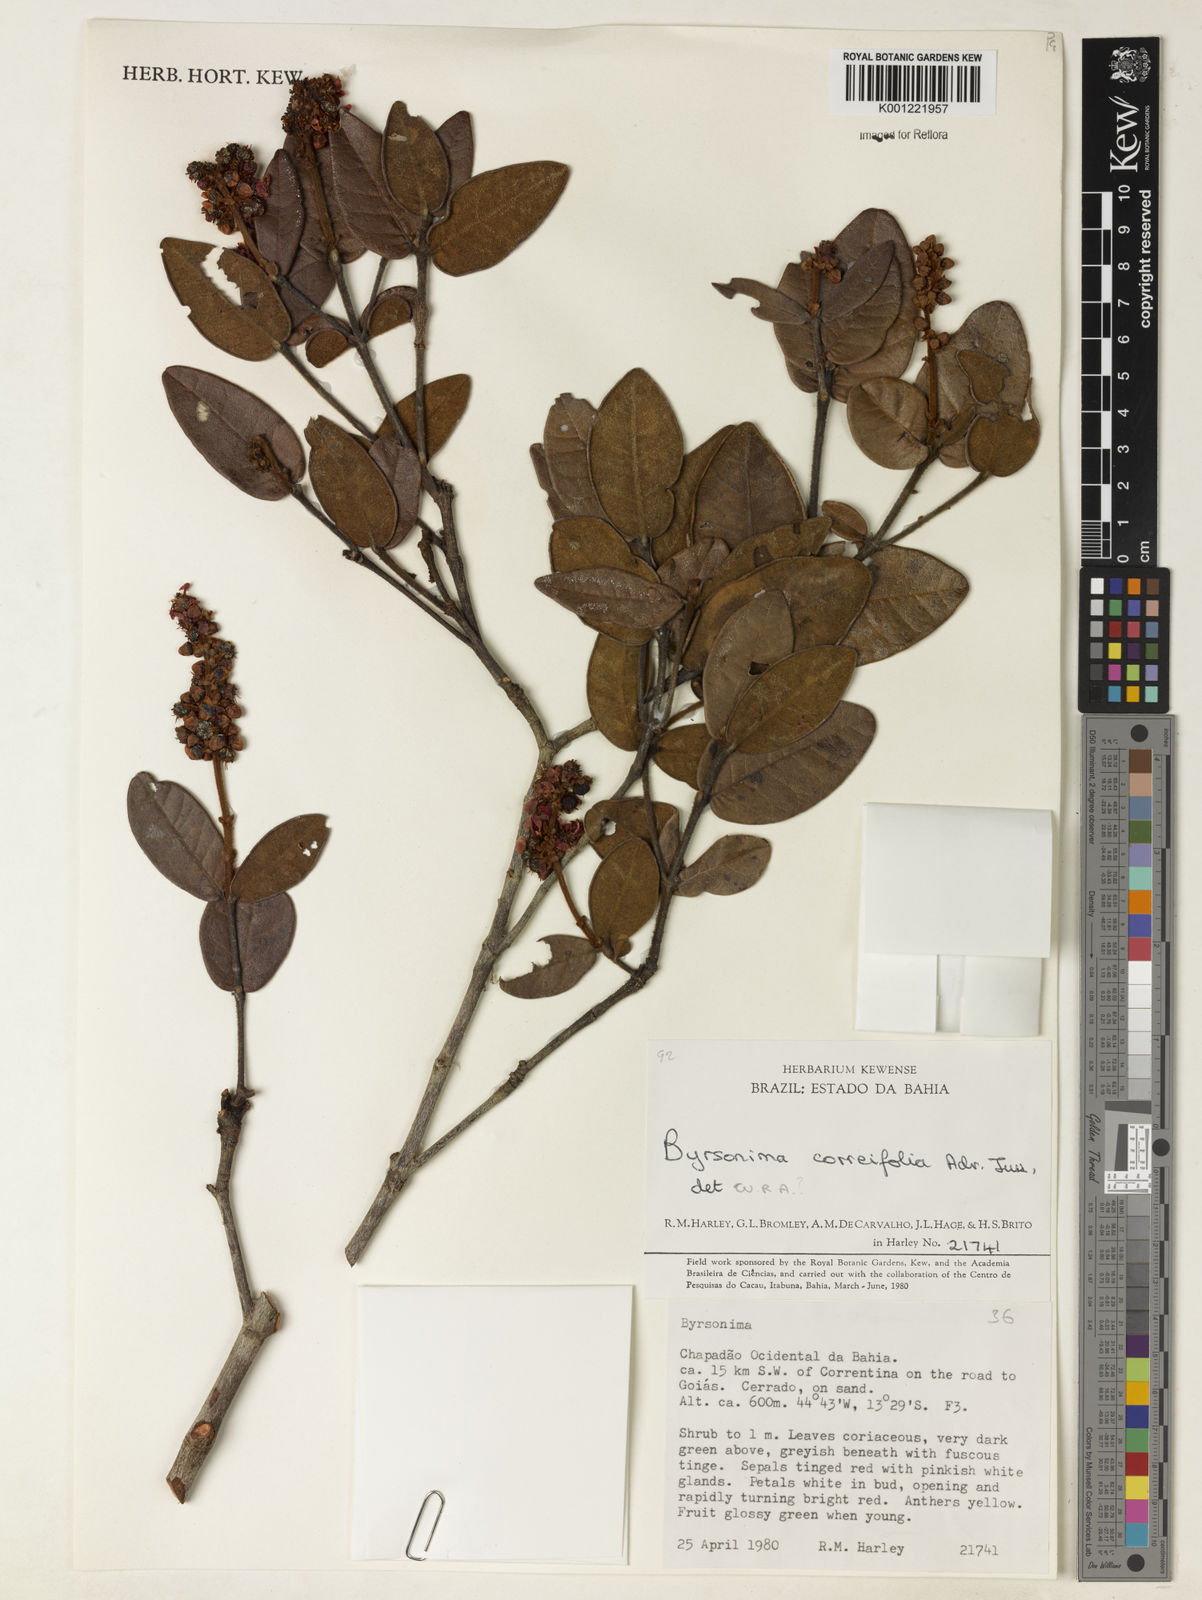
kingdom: Plantae
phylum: Tracheophyta
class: Magnoliopsida
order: Malpighiales
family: Malpighiaceae
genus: Byrsonima
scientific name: Byrsonima correifolia
